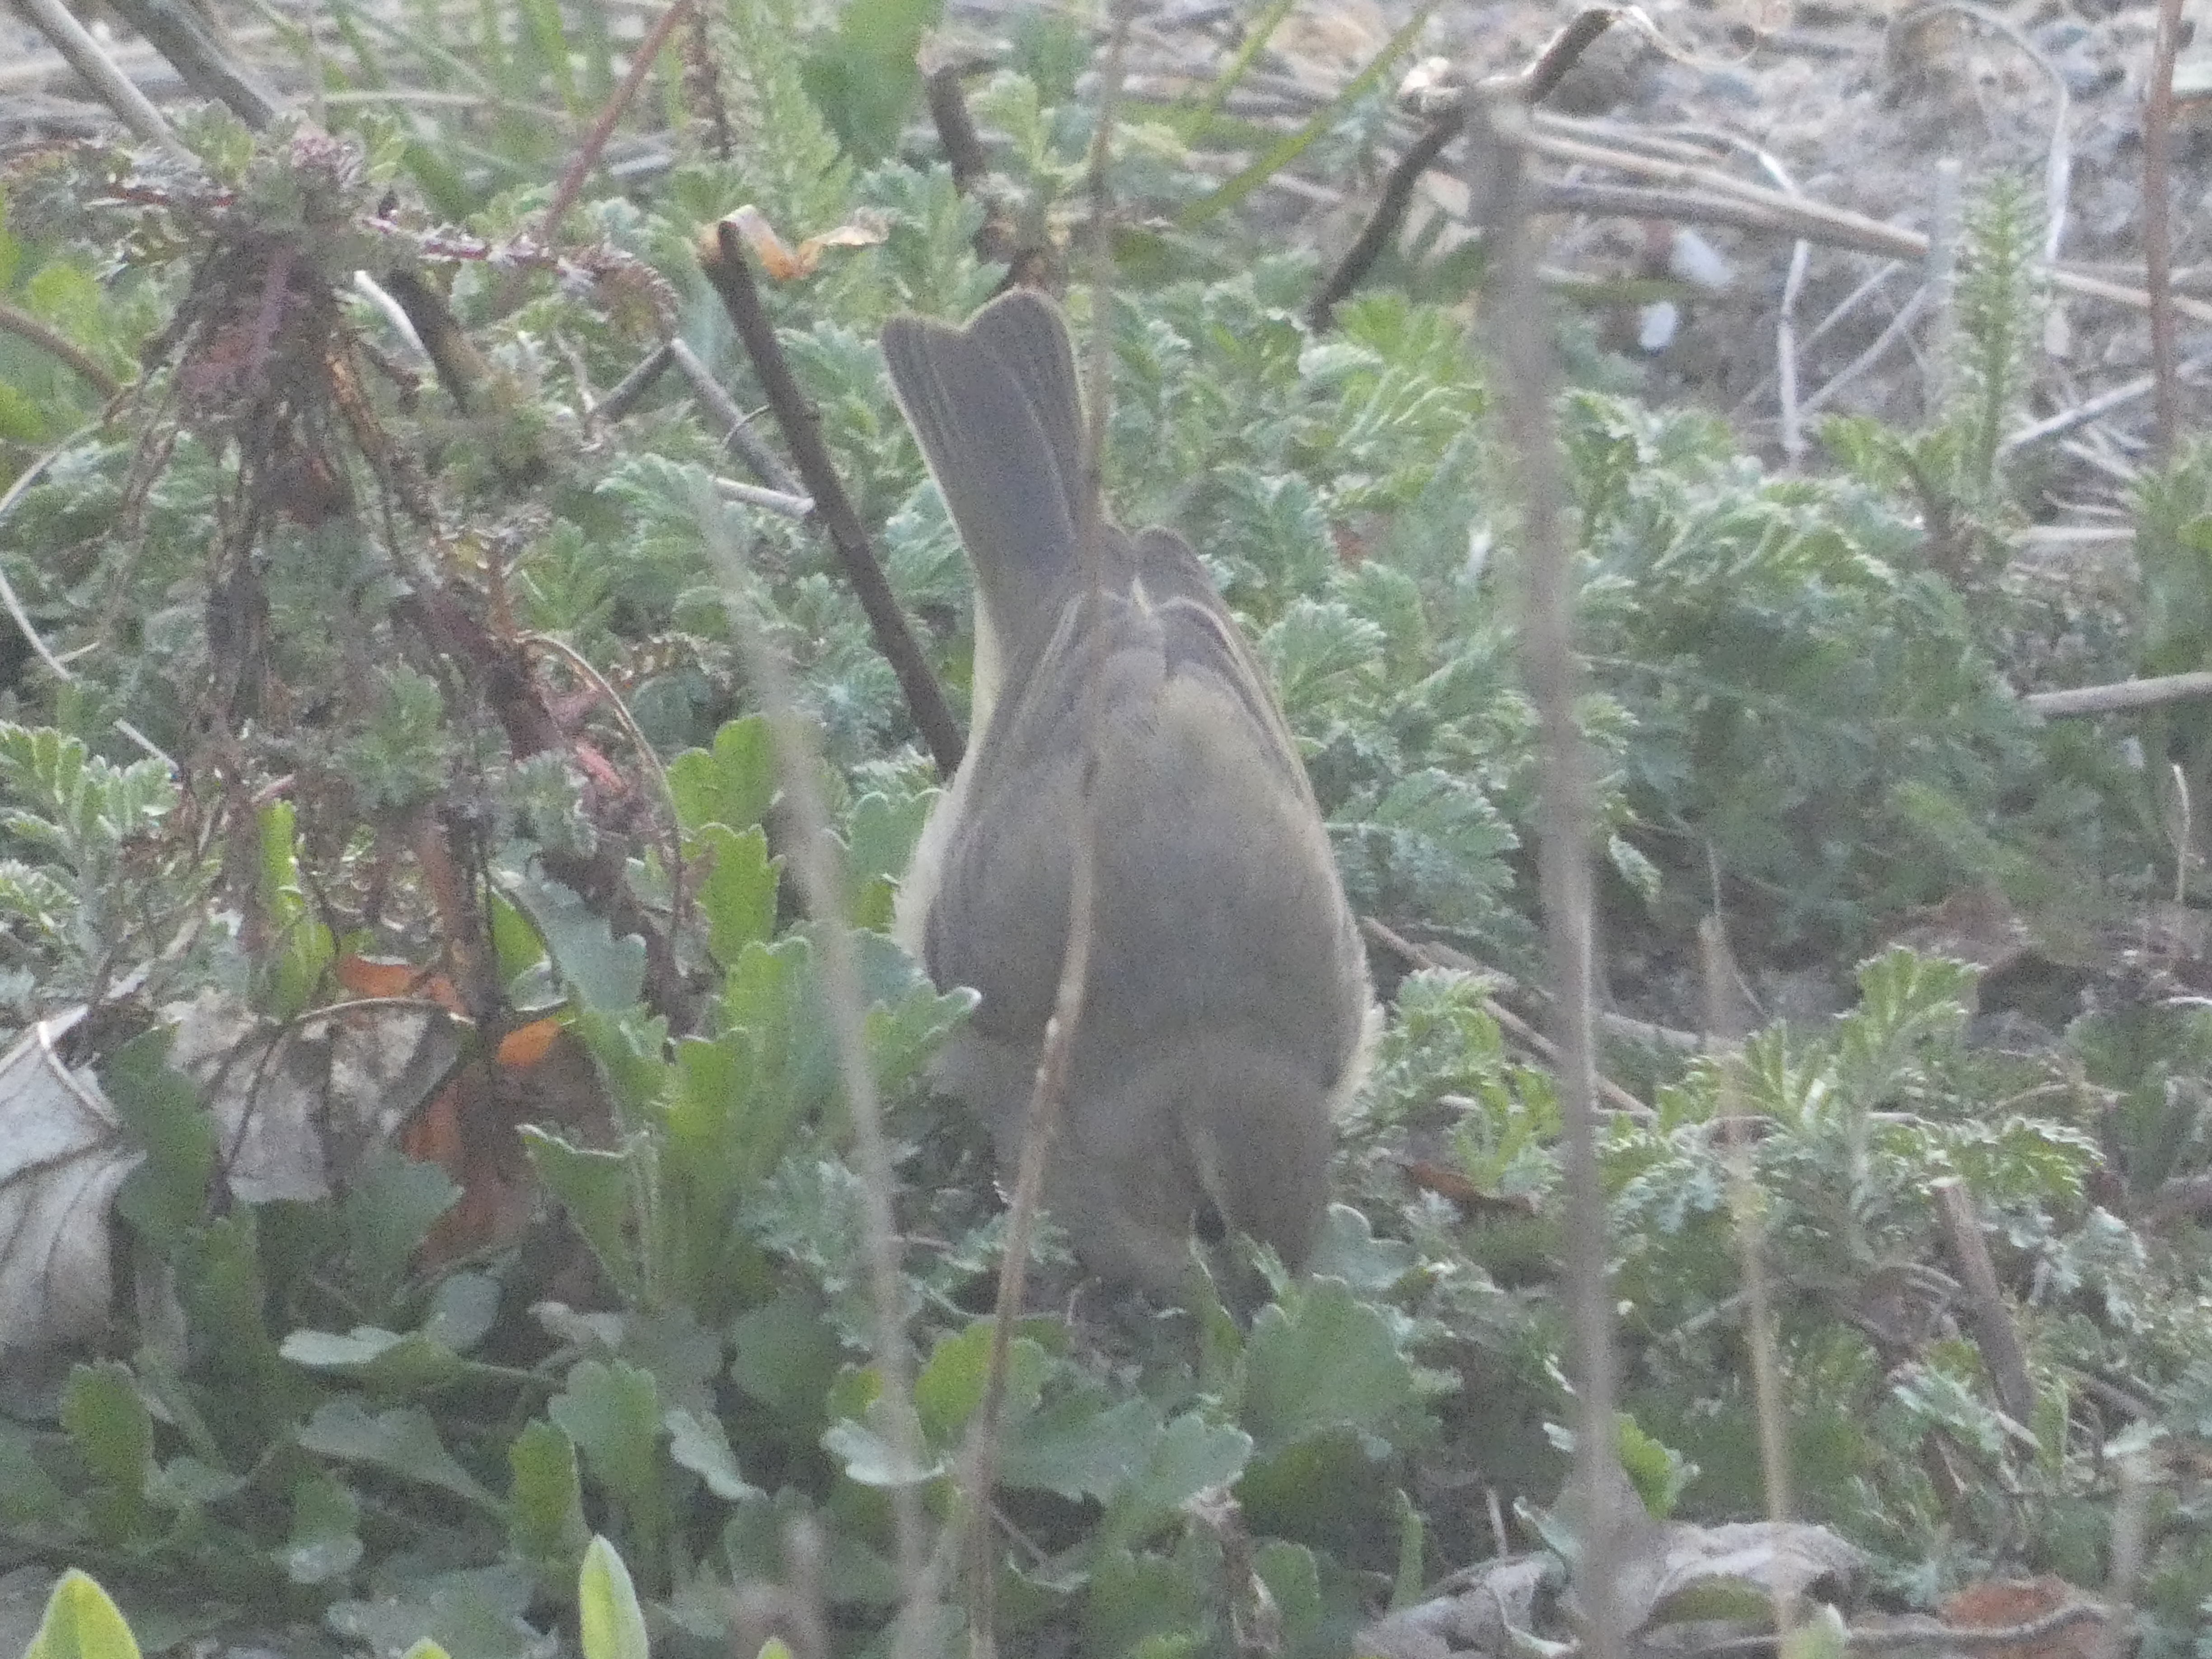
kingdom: Animalia
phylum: Chordata
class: Aves
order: Passeriformes
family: Phylloscopidae
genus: Phylloscopus
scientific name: Phylloscopus collybita
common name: Gransanger
